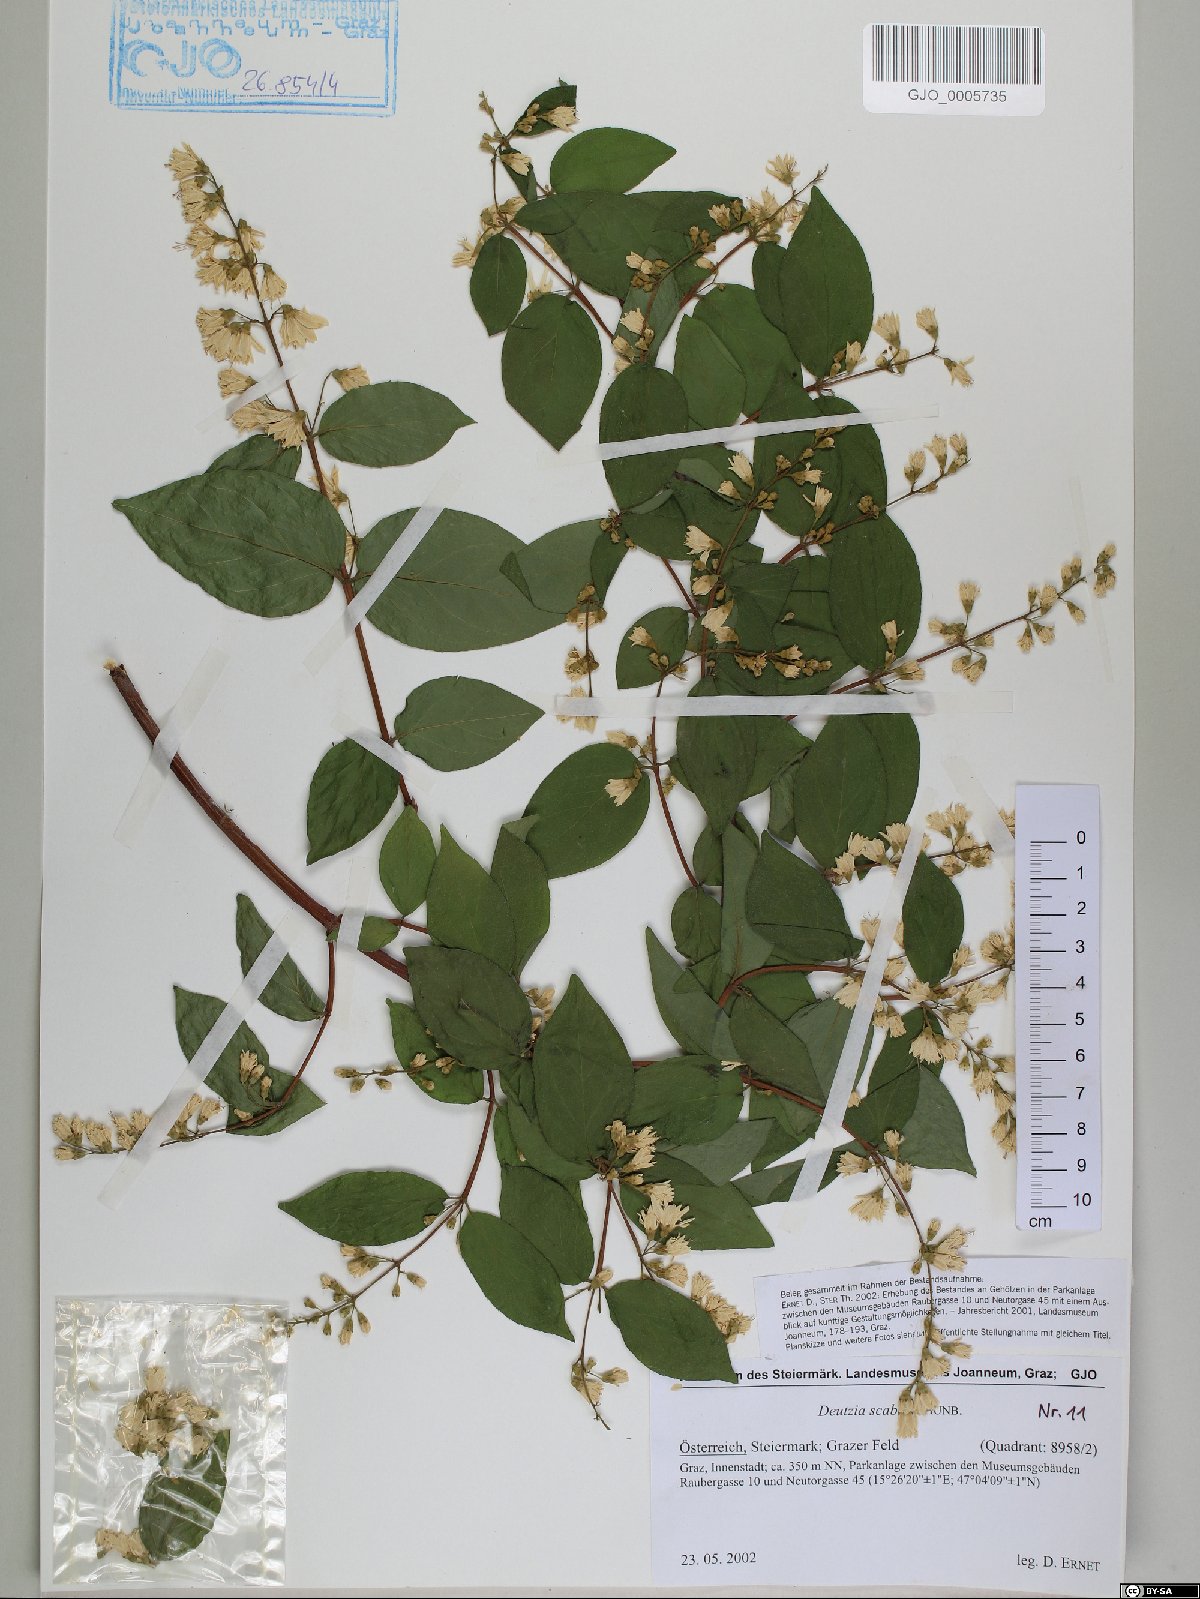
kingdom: Plantae
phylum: Tracheophyta
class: Magnoliopsida
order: Cornales
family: Hydrangeaceae
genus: Deutzia
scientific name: Deutzia scabra
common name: Deutzia
